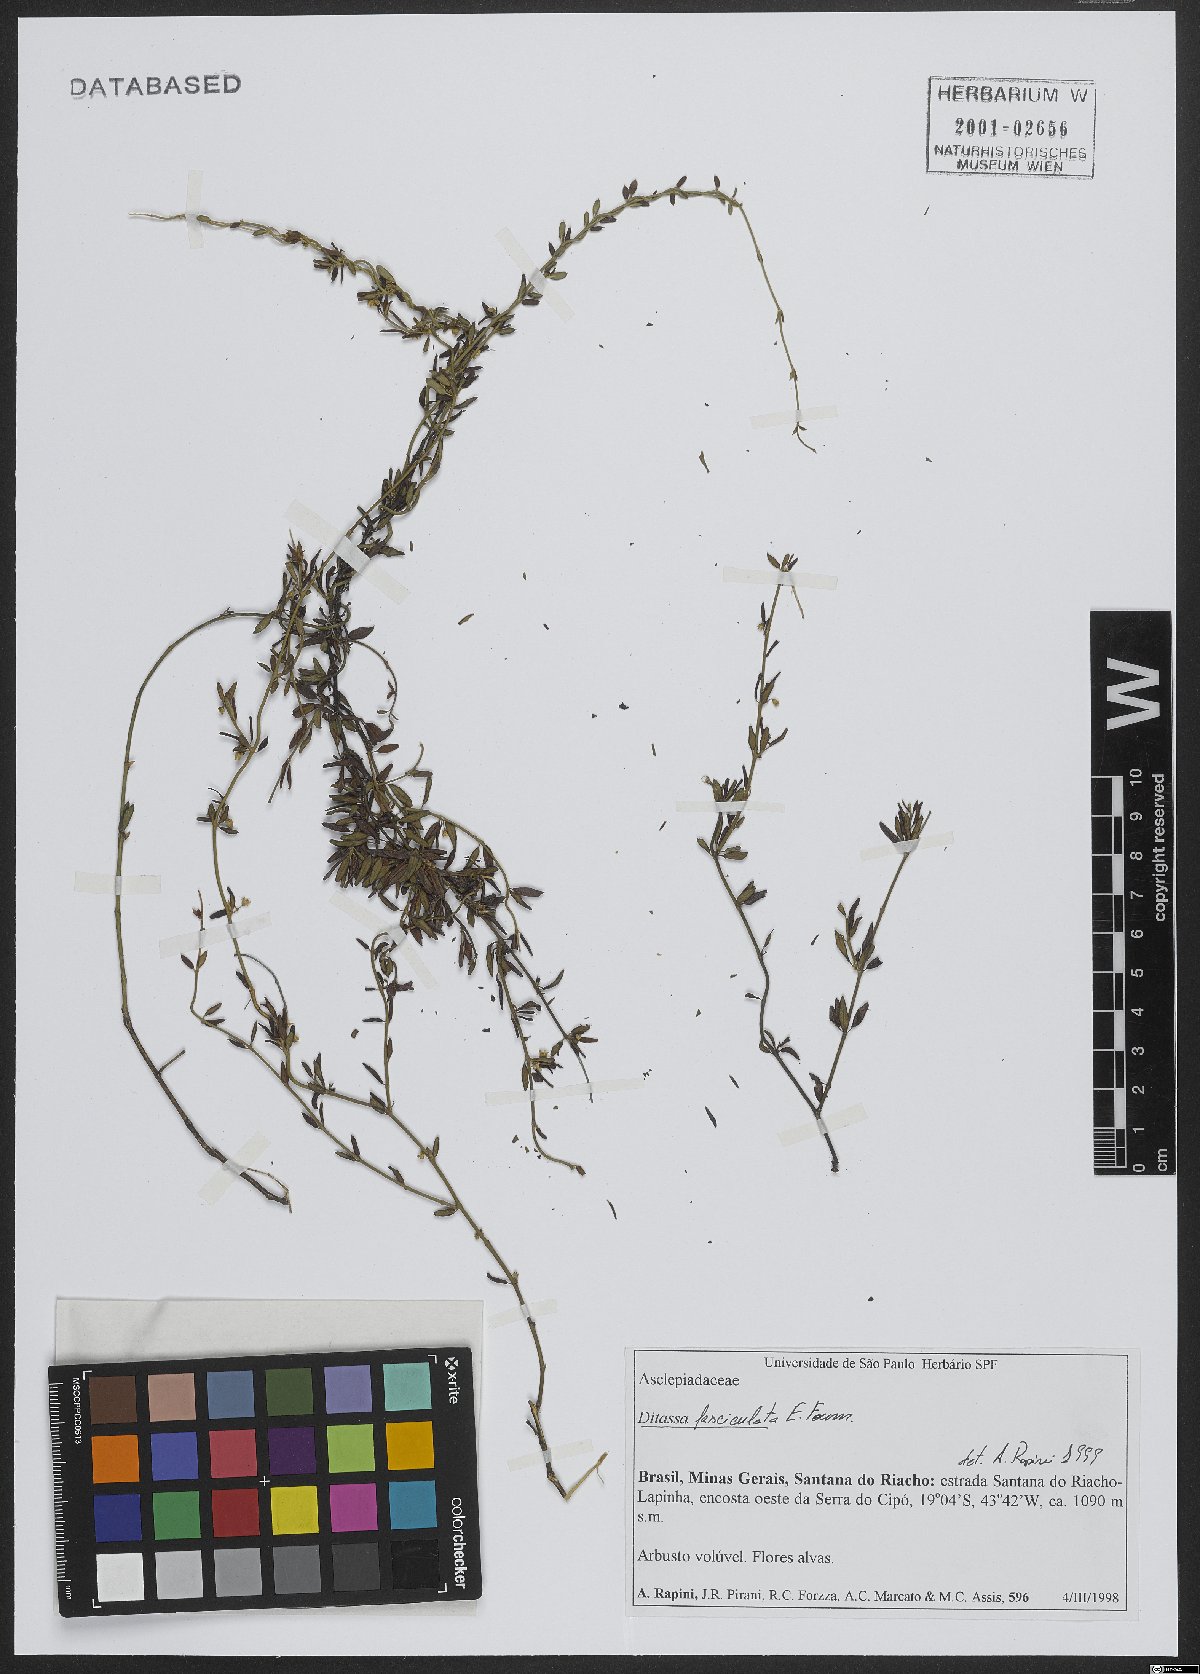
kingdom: Plantae
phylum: Tracheophyta
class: Magnoliopsida
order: Gentianales
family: Apocynaceae
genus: Ditassa
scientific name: Ditassa fasciculata
